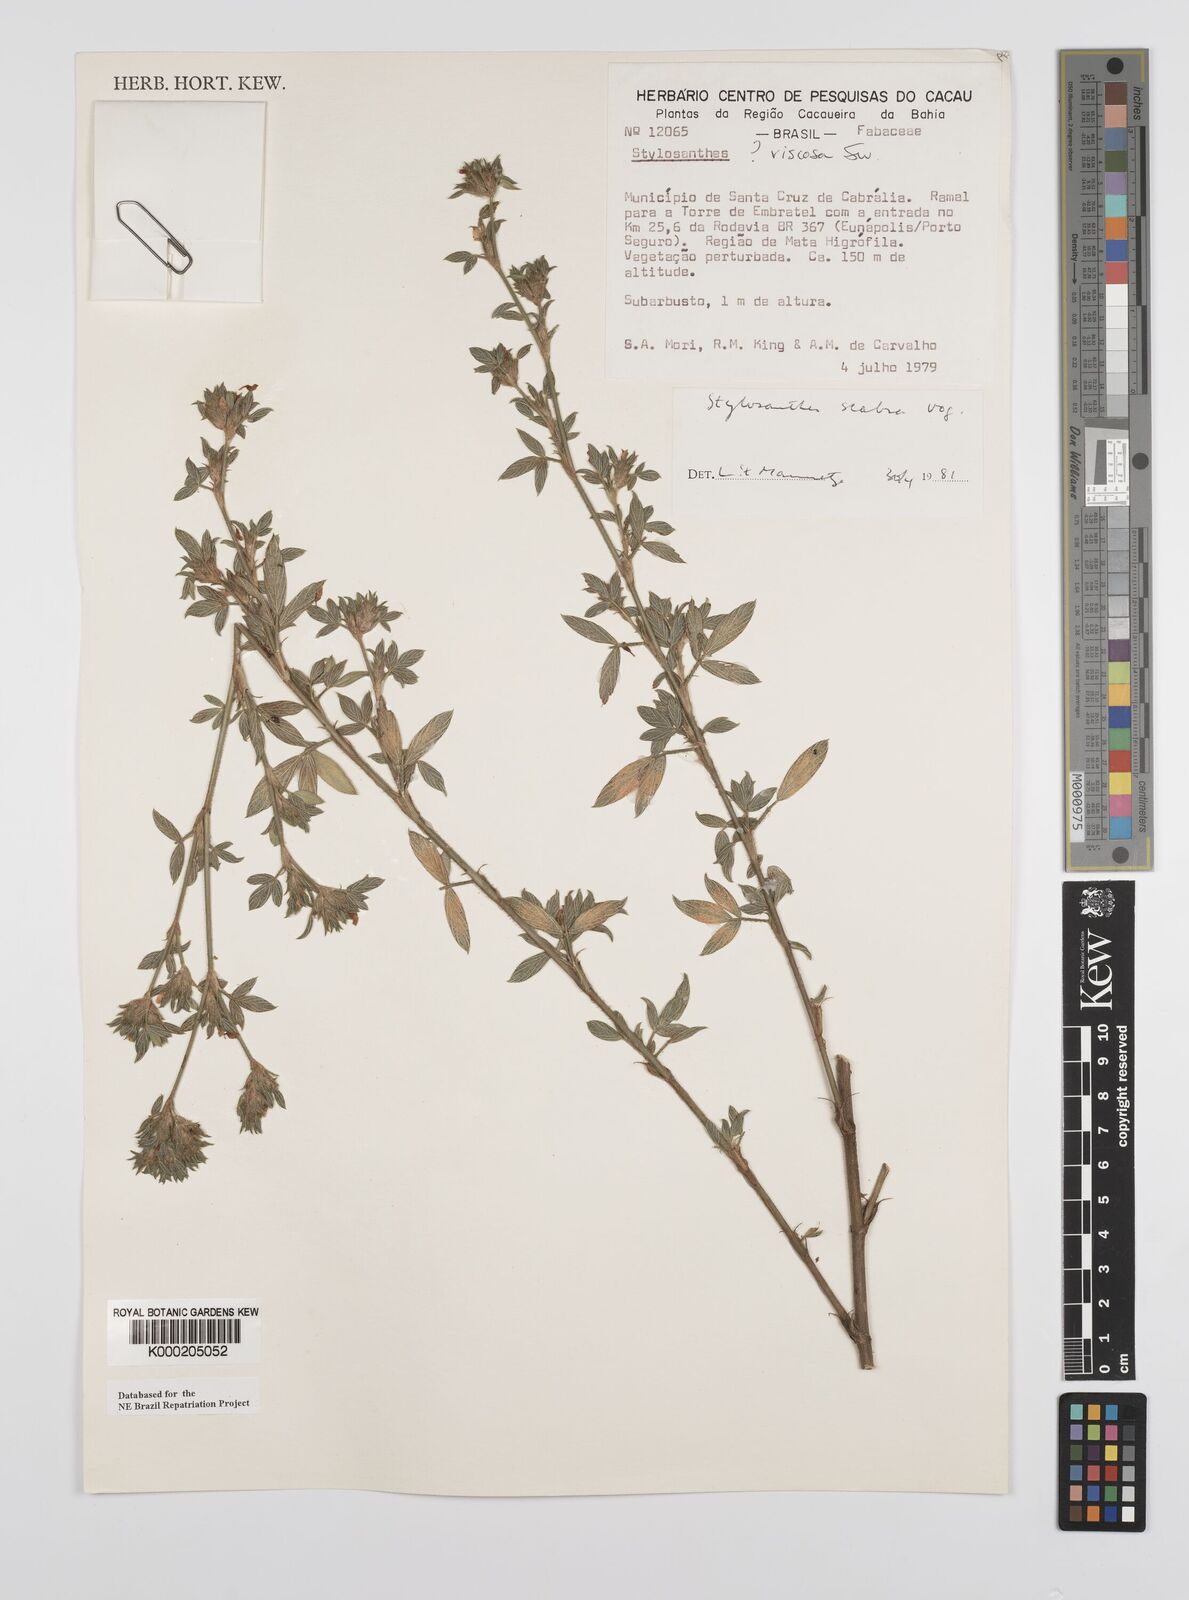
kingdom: Plantae
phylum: Tracheophyta
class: Magnoliopsida
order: Fabales
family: Fabaceae
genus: Stylosanthes
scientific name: Stylosanthes scabra
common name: Pencilflower
